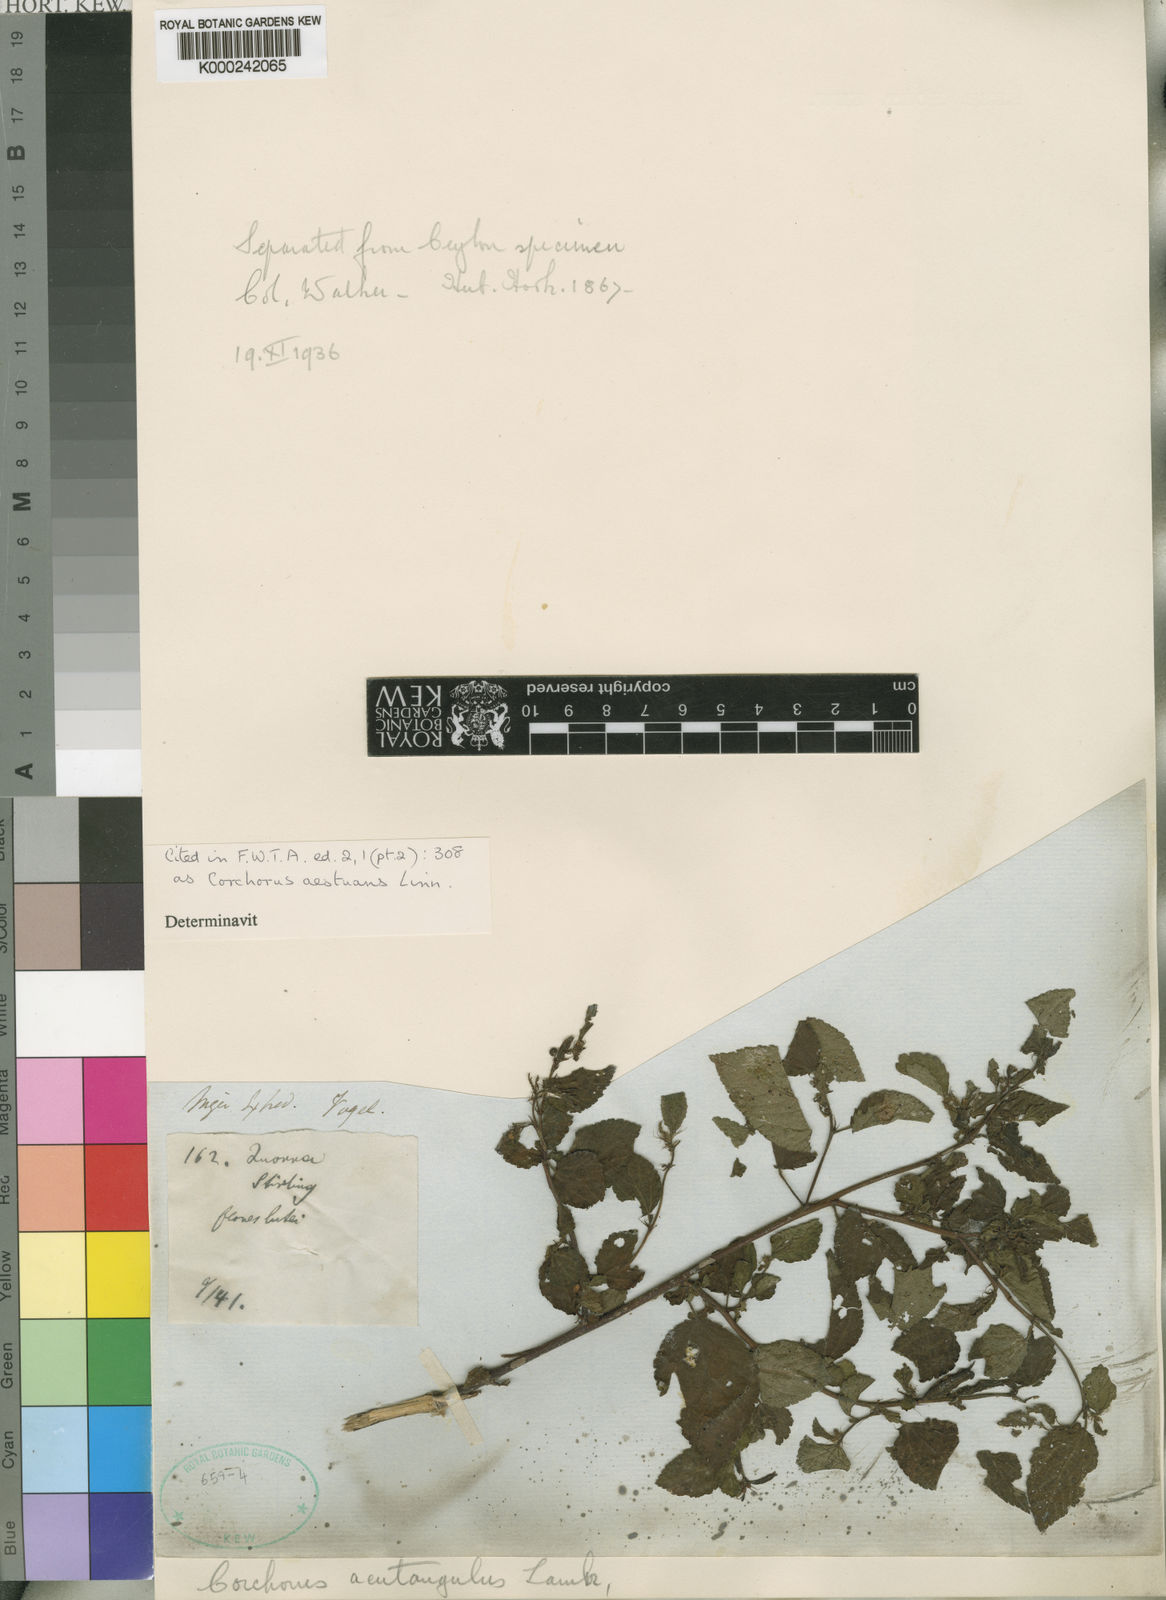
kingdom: Plantae
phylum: Tracheophyta
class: Magnoliopsida
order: Malvales
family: Malvaceae
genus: Corchorus
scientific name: Corchorus aestuans
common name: Jute
